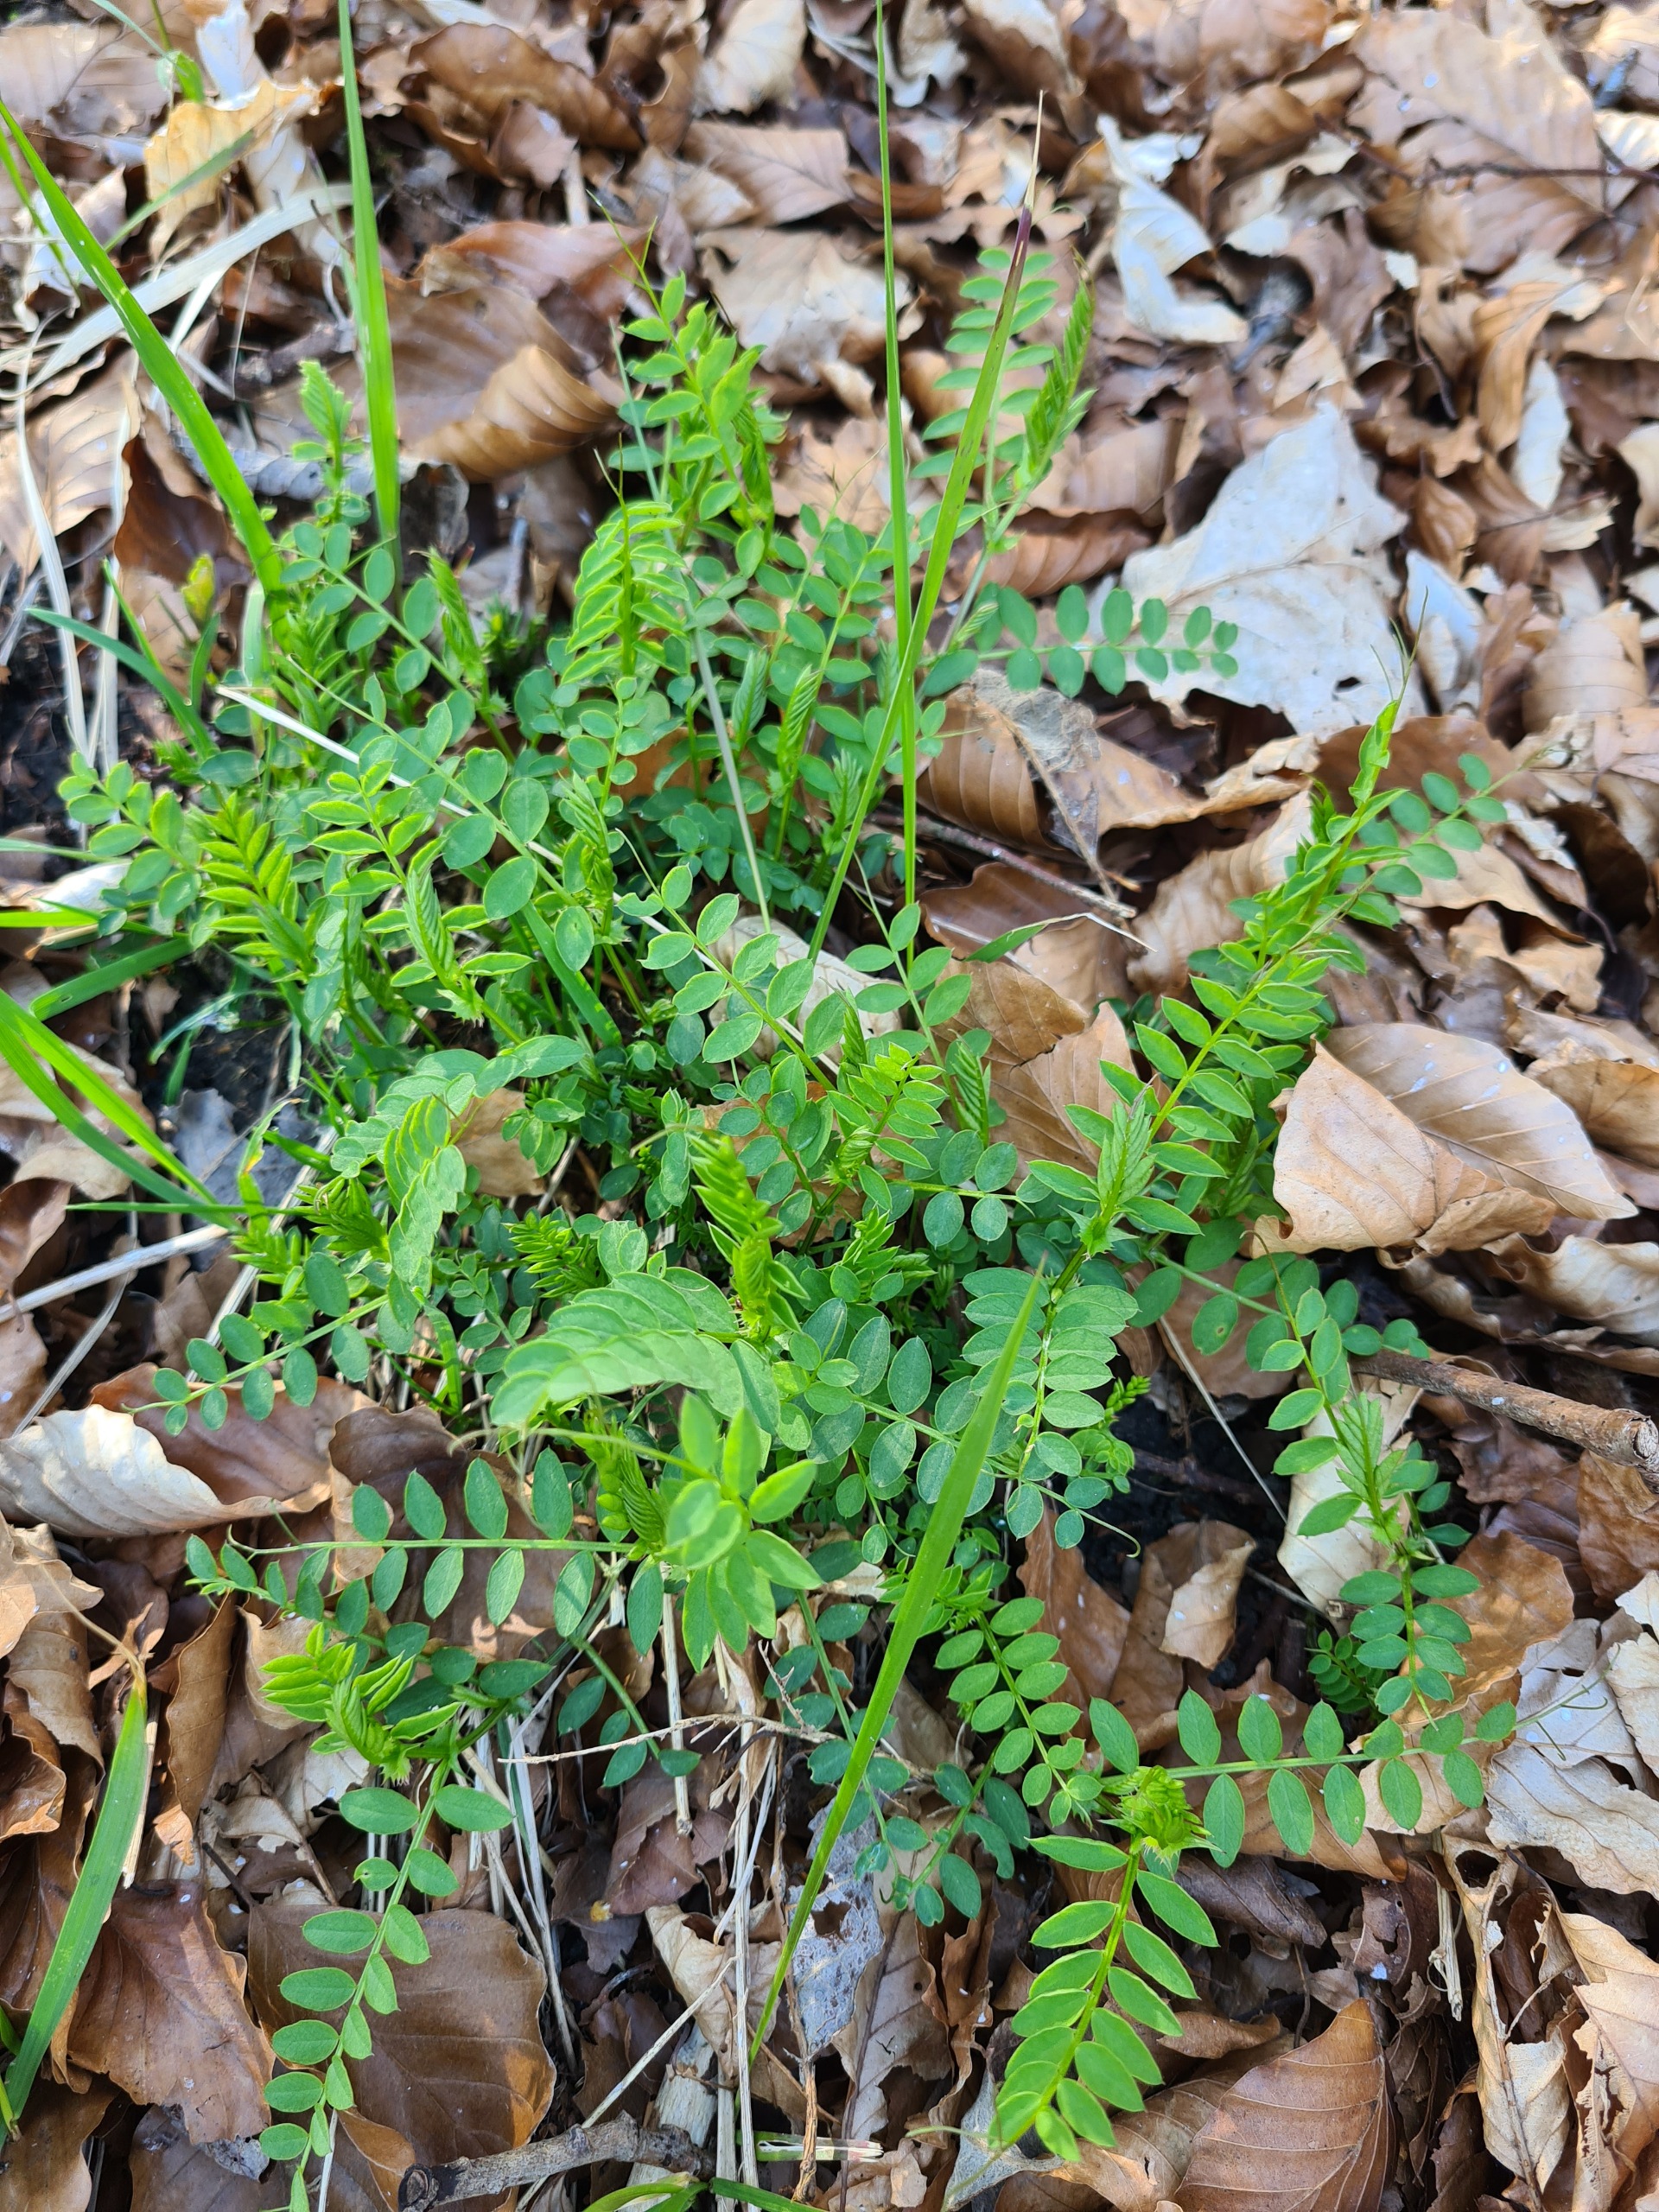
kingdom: Plantae
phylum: Tracheophyta
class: Magnoliopsida
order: Fabales
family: Fabaceae
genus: Vicia
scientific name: Vicia sylvatica
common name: Skov-vikke
